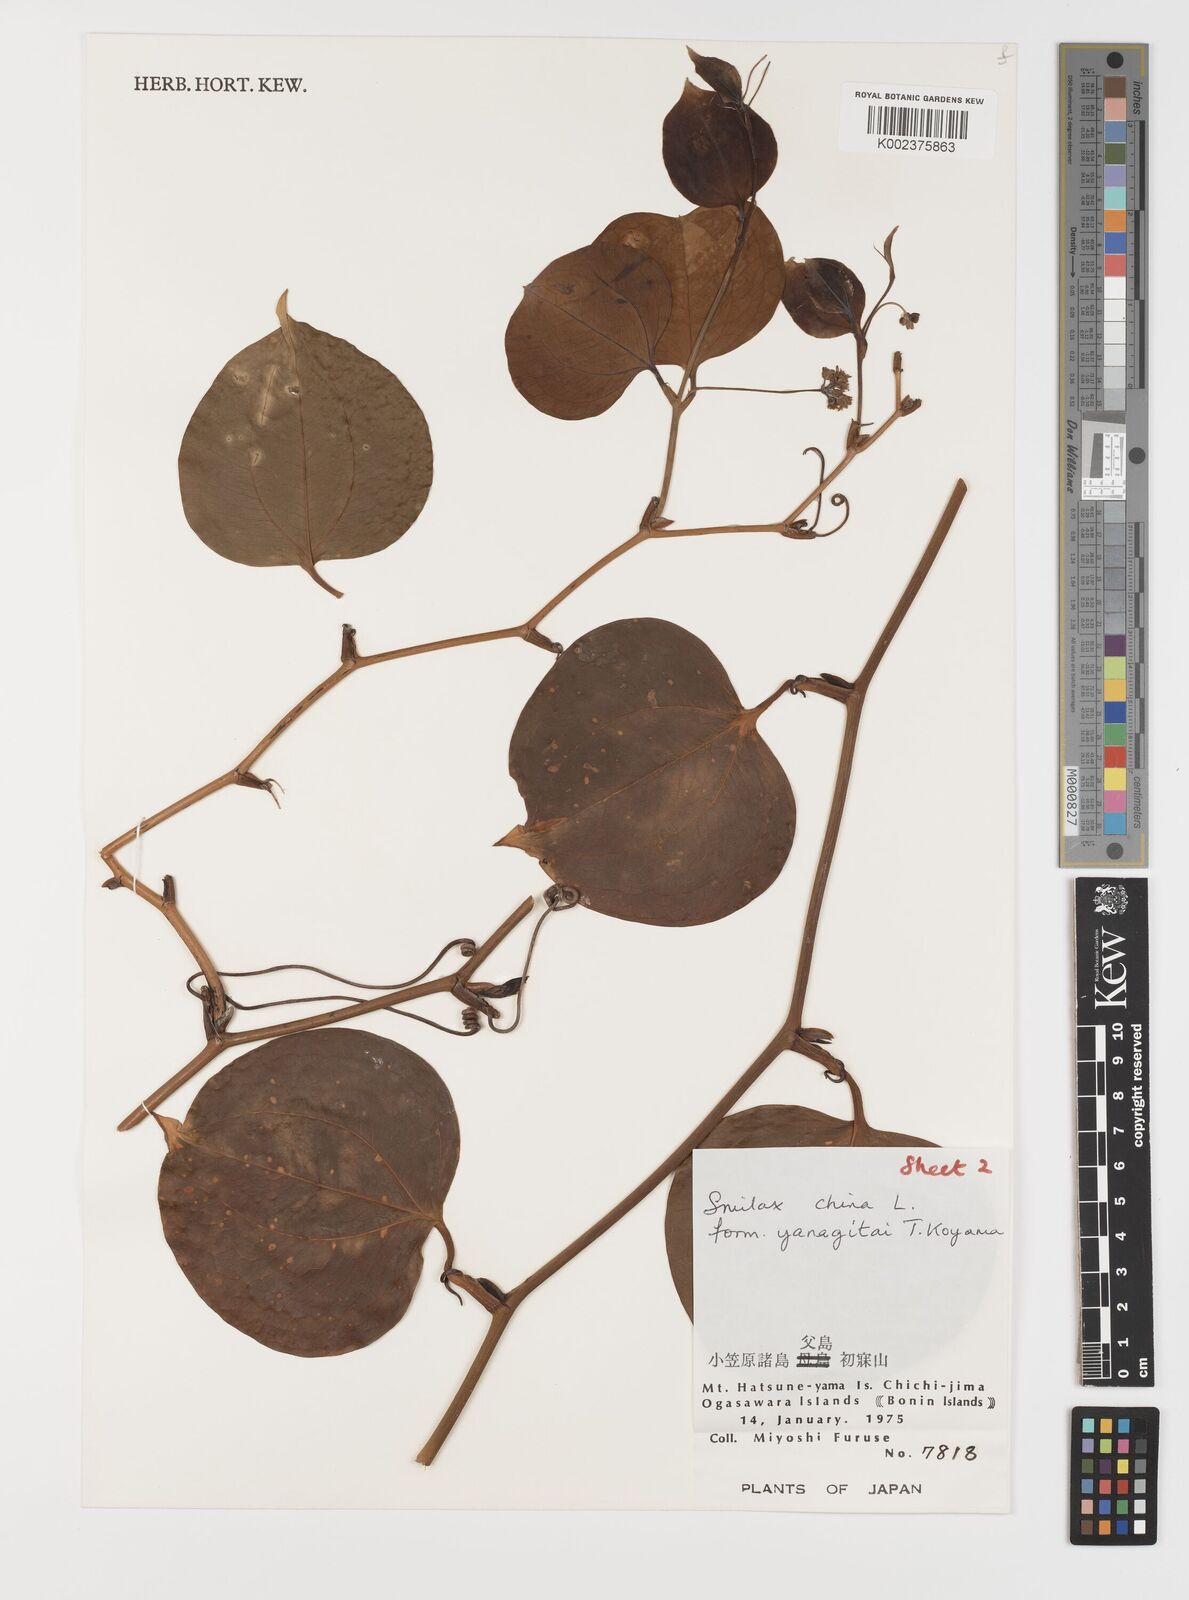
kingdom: Plantae
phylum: Tracheophyta
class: Liliopsida
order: Liliales
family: Smilacaceae
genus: Smilax
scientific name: Smilax china
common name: Chinaroot
